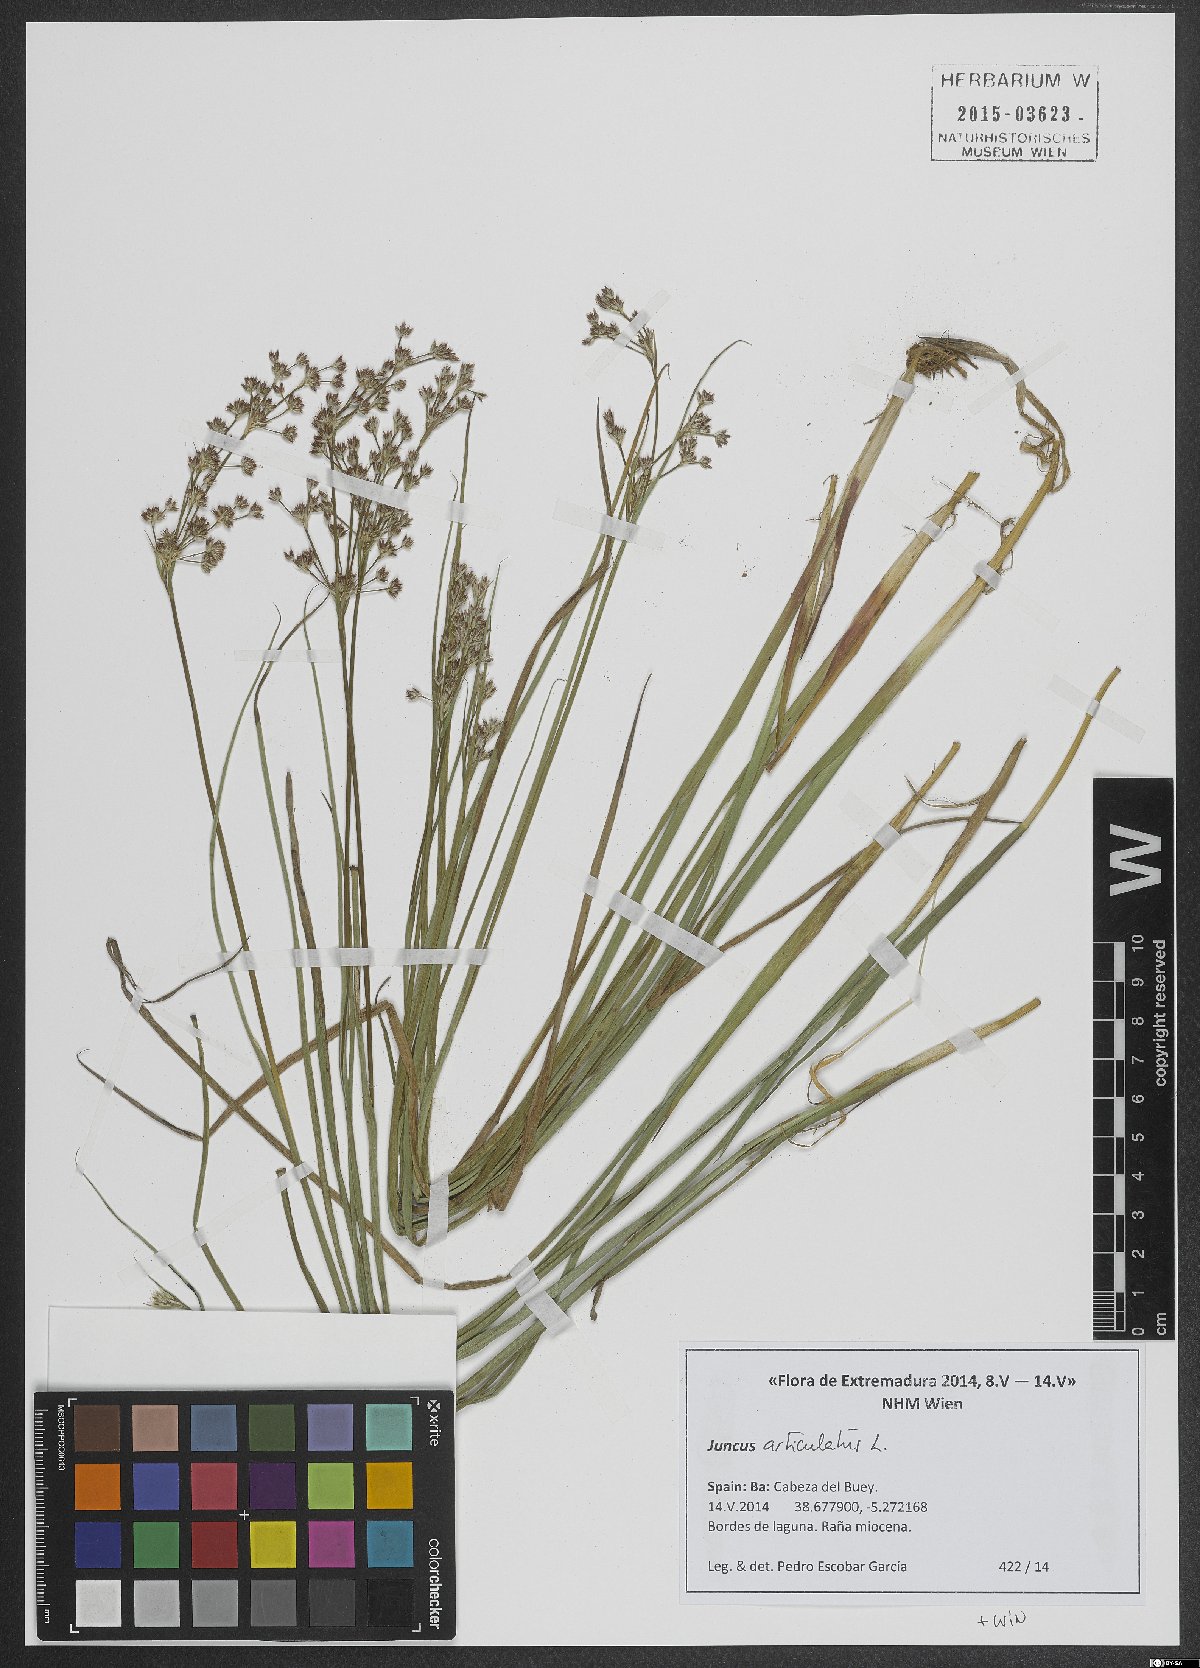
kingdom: Plantae
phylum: Tracheophyta
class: Liliopsida
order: Poales
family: Juncaceae
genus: Juncus
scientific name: Juncus articulatus
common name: Jointed rush
